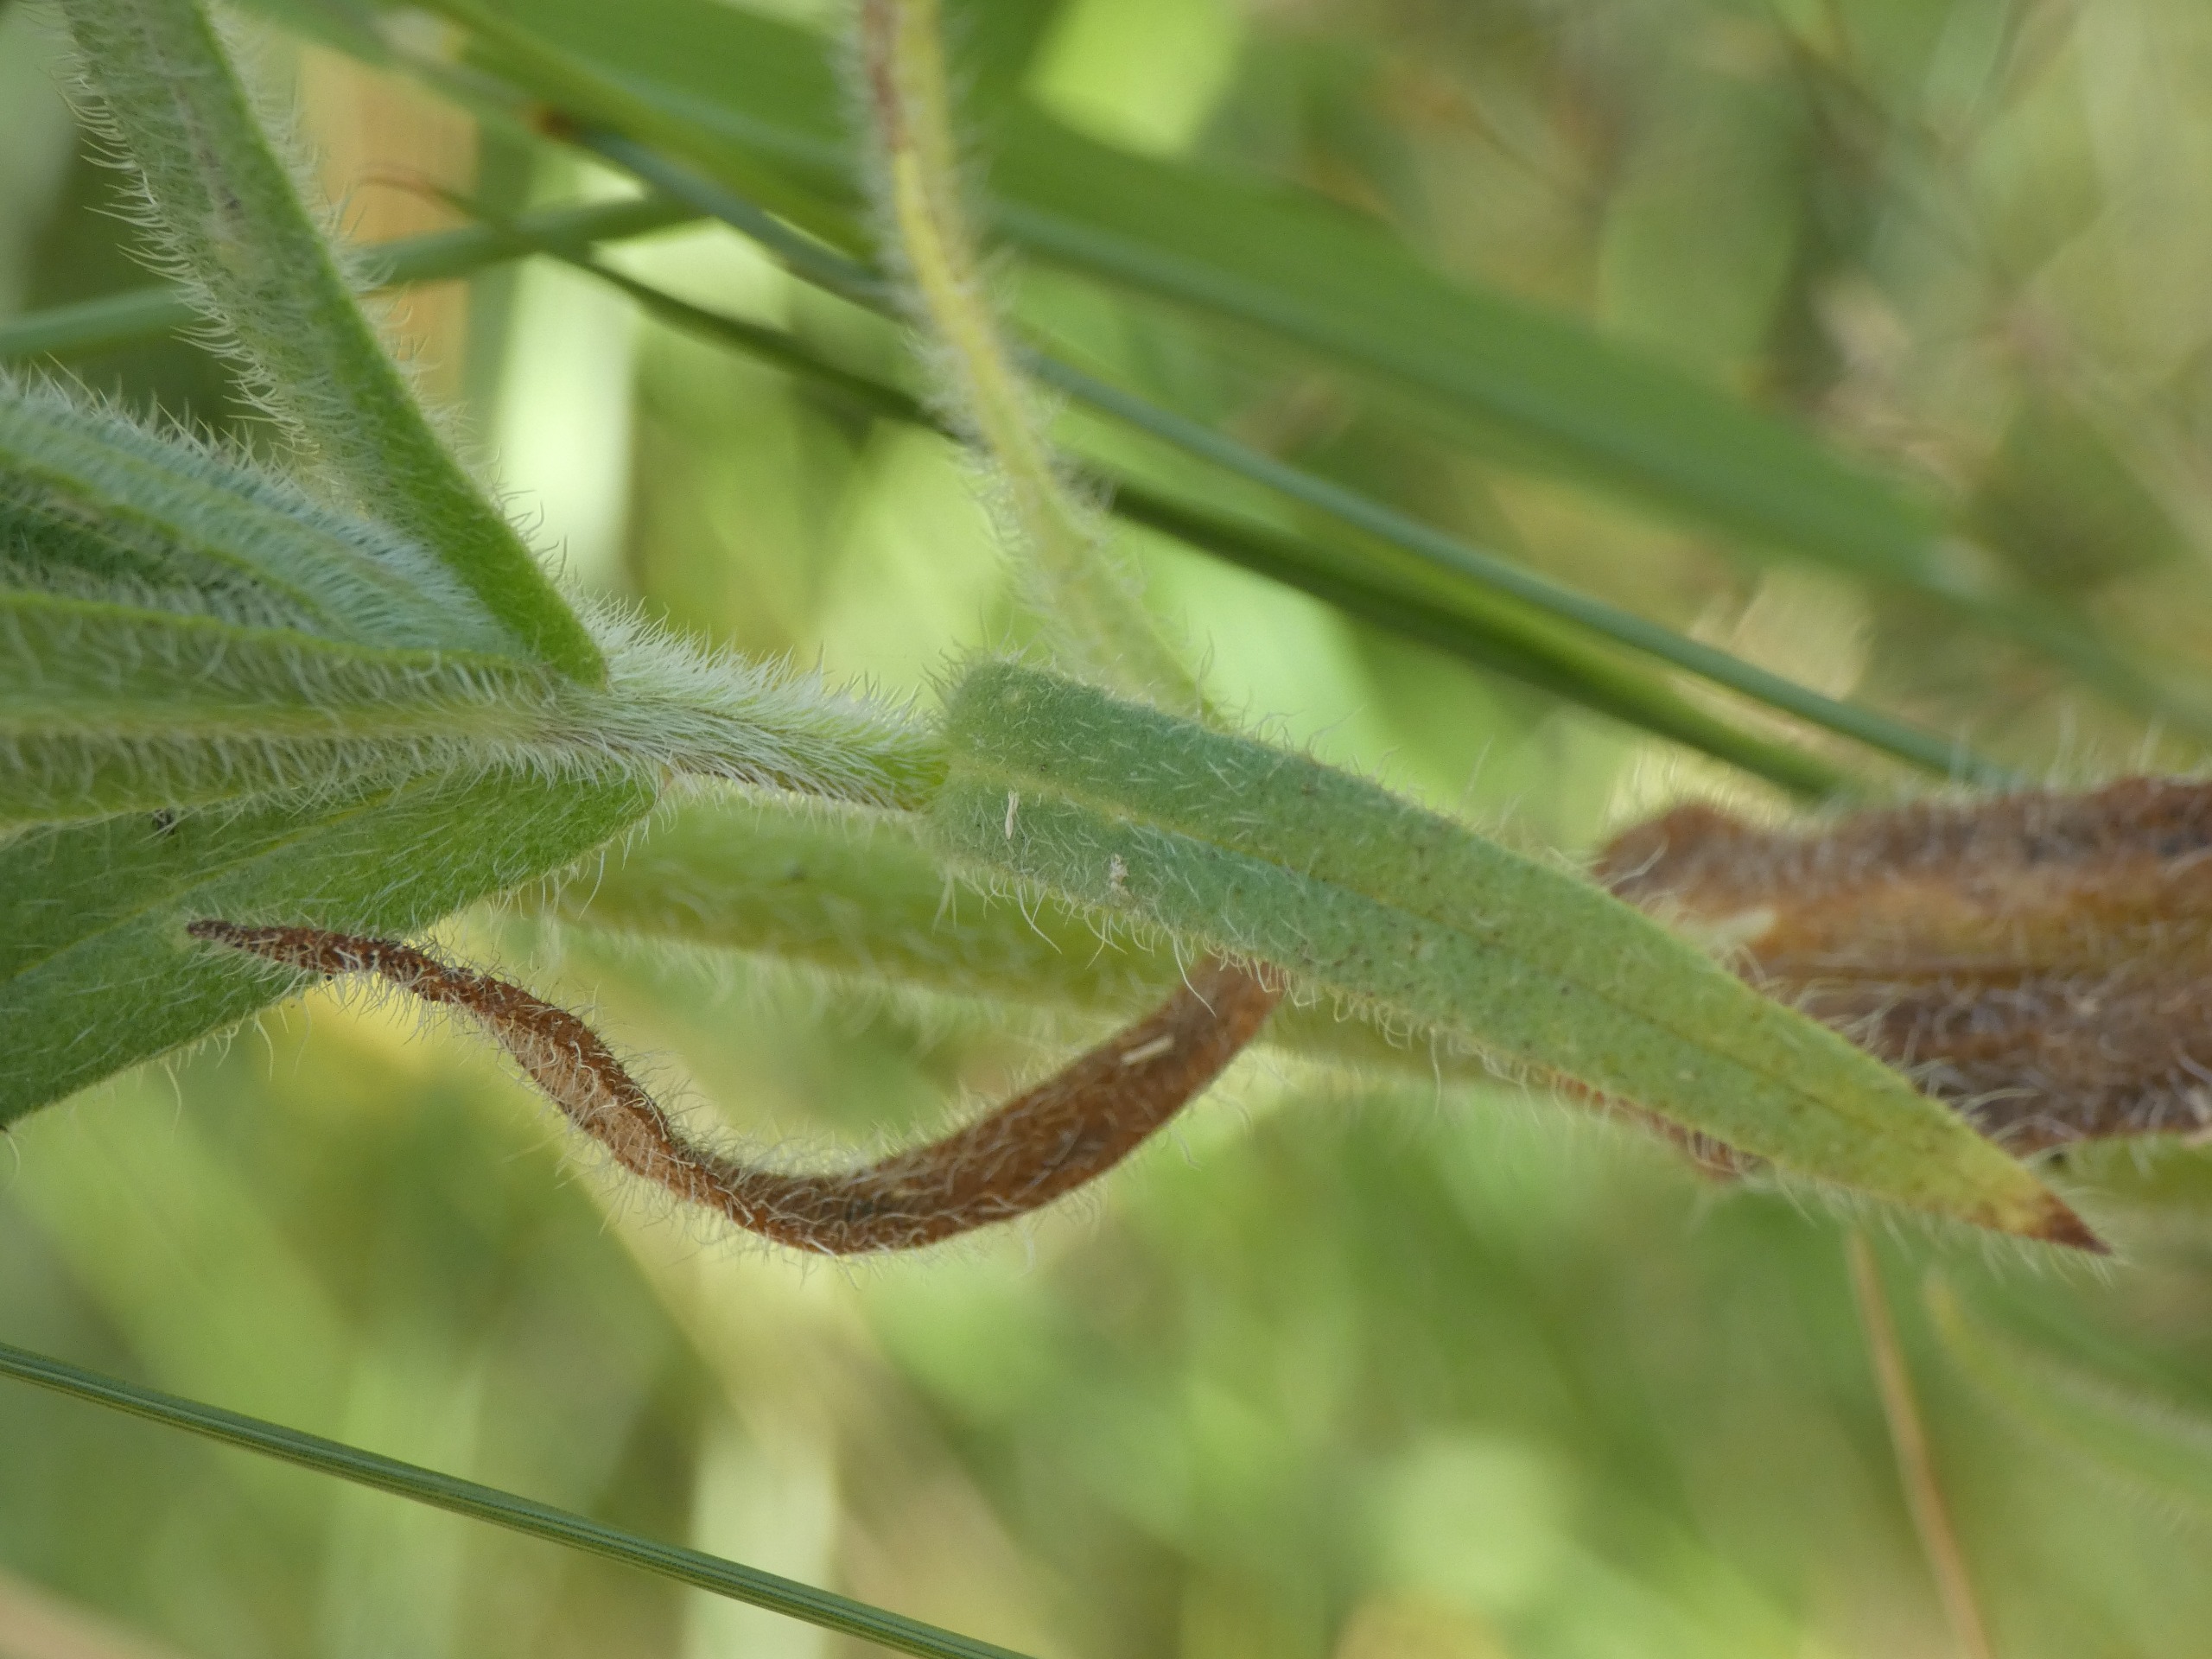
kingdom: Plantae
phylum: Tracheophyta
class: Magnoliopsida
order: Boraginales
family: Boraginaceae
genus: Anchusa
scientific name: Anchusa officinalis
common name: Læge-oksetunge
